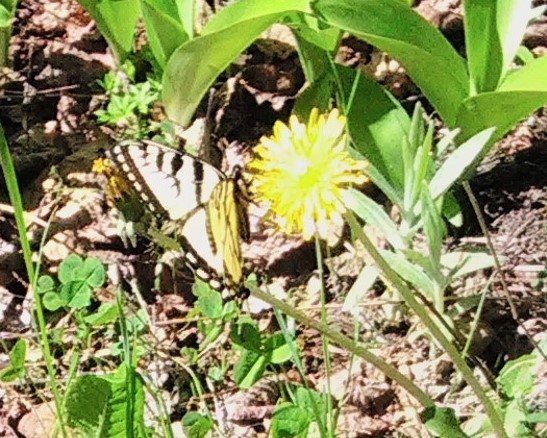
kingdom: Animalia
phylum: Arthropoda
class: Insecta
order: Lepidoptera
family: Papilionidae
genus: Pterourus
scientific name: Pterourus canadensis
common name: Canadian Tiger Swallowtail
